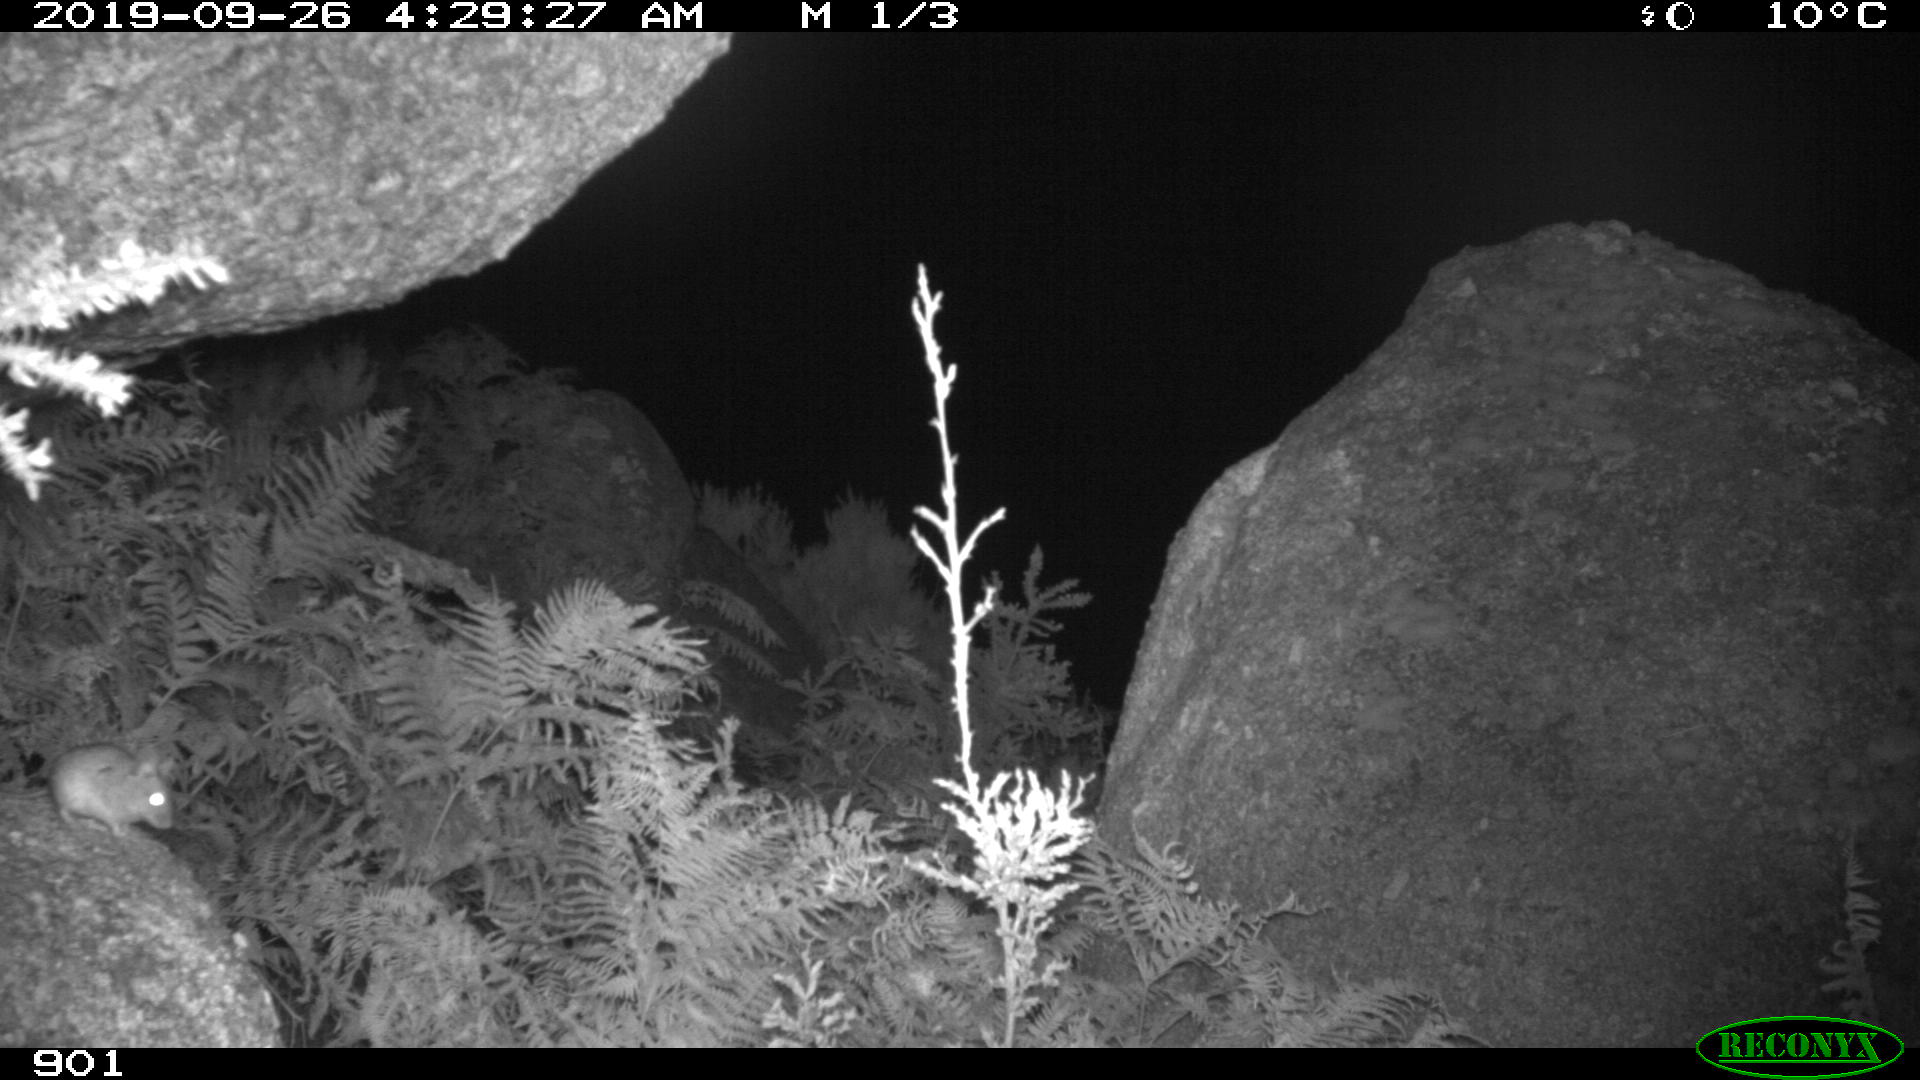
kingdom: Animalia
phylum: Chordata
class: Mammalia
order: Rodentia
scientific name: Rodentia
